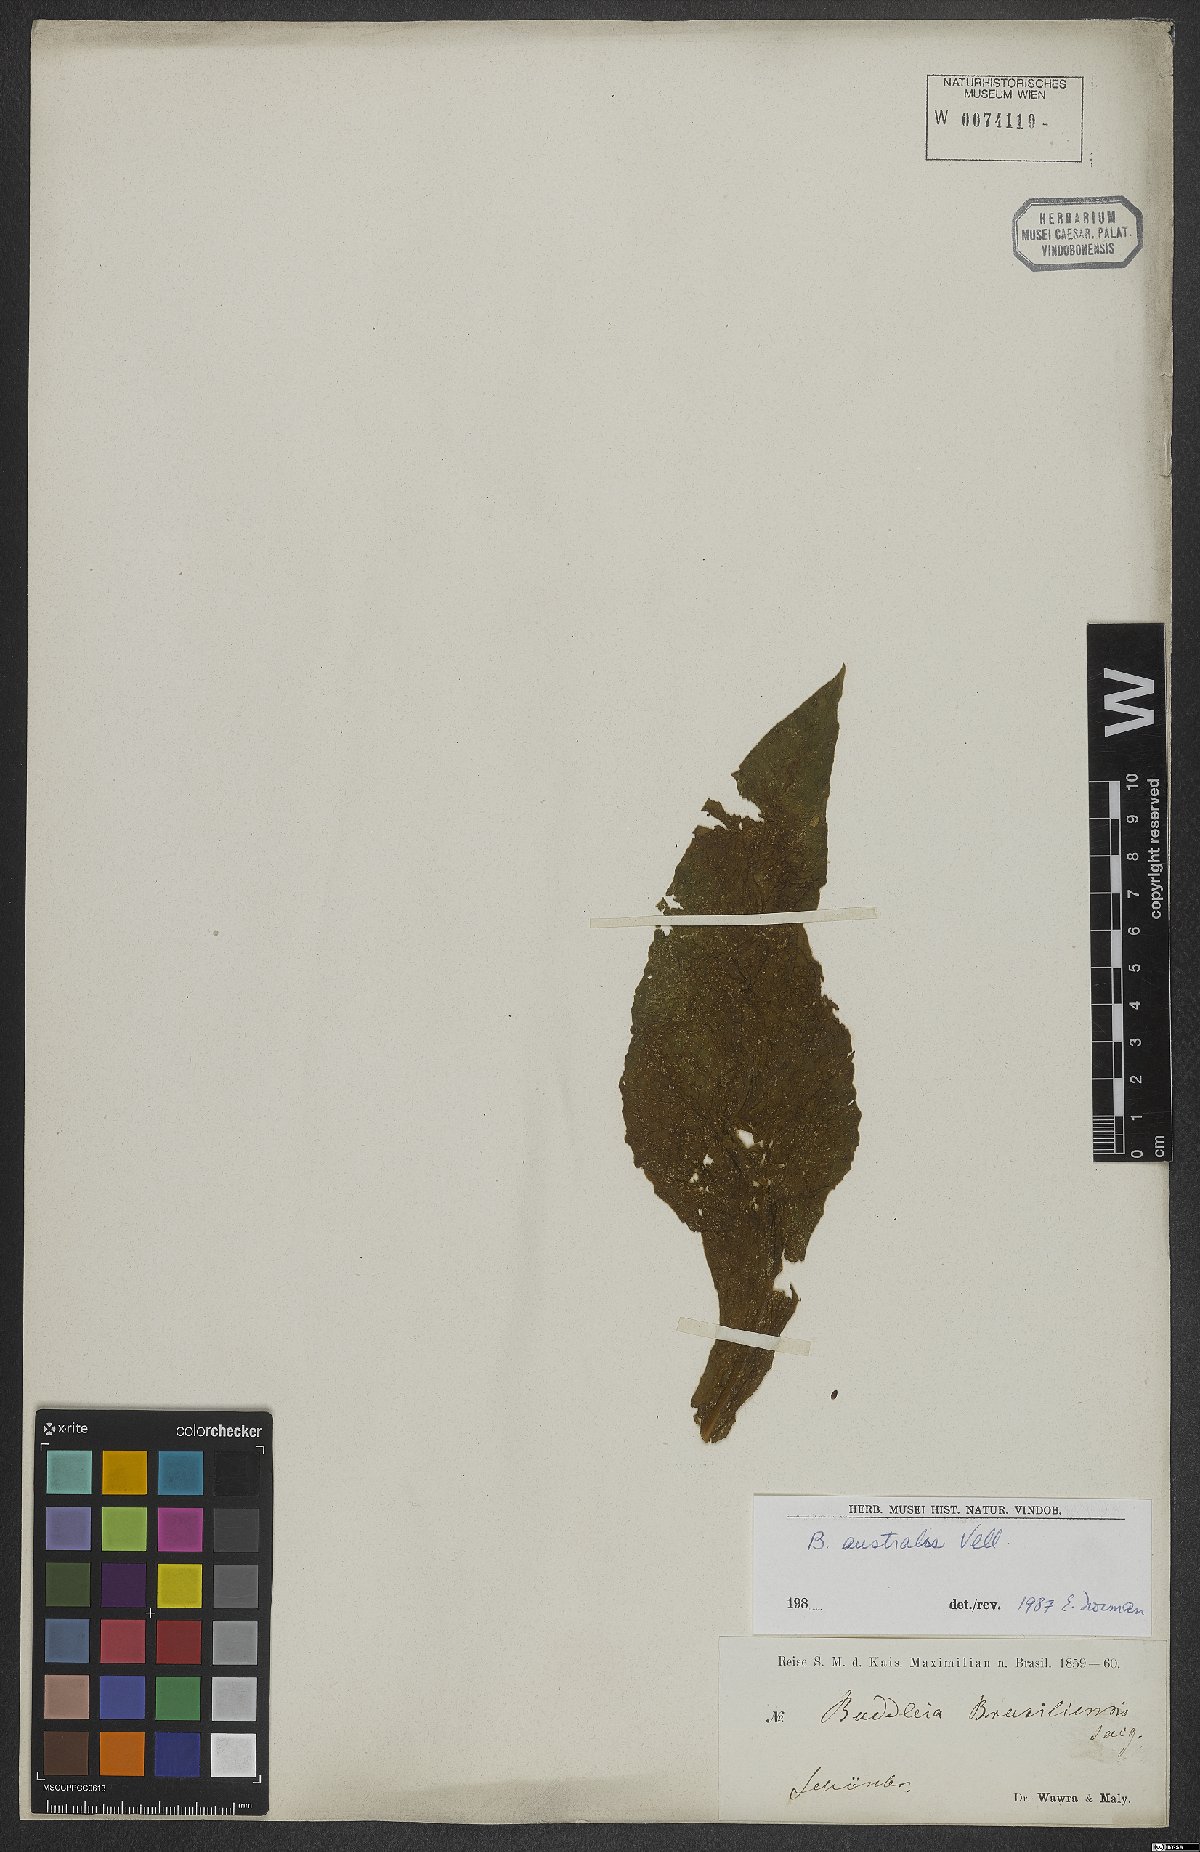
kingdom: Plantae
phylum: Tracheophyta
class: Magnoliopsida
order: Lamiales
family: Scrophulariaceae
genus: Buddleja
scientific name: Buddleja stachyoides
